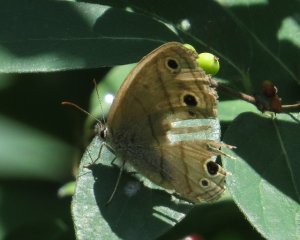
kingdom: Animalia
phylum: Arthropoda
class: Insecta
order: Lepidoptera
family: Nymphalidae
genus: Euptychia
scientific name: Euptychia cymela
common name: Little Wood Satyr
